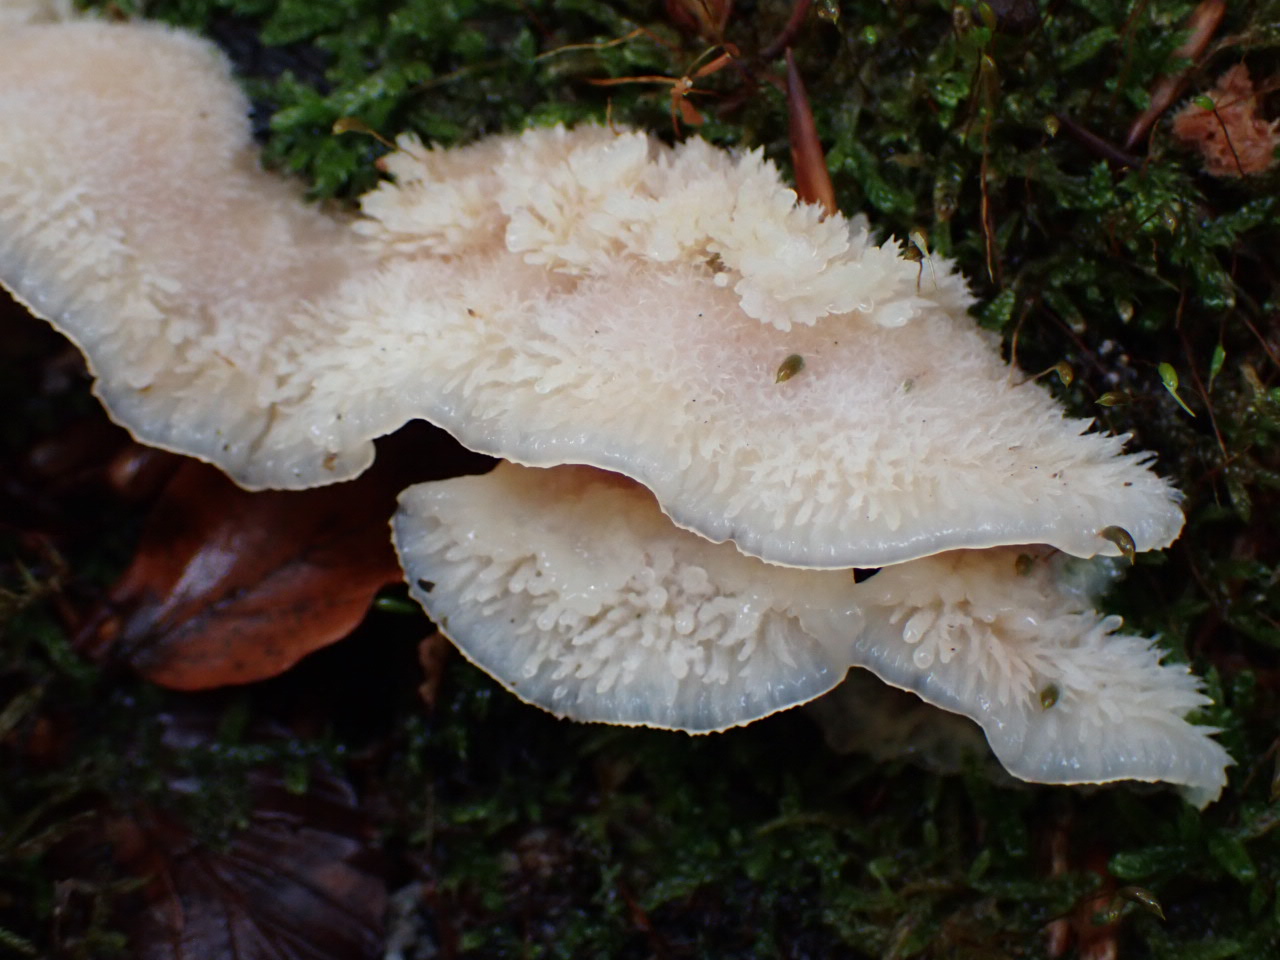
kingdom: Fungi
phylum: Basidiomycota
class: Agaricomycetes
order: Polyporales
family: Meruliaceae
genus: Phlebia
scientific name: Phlebia tremellosa
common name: bævrende åresvamp
